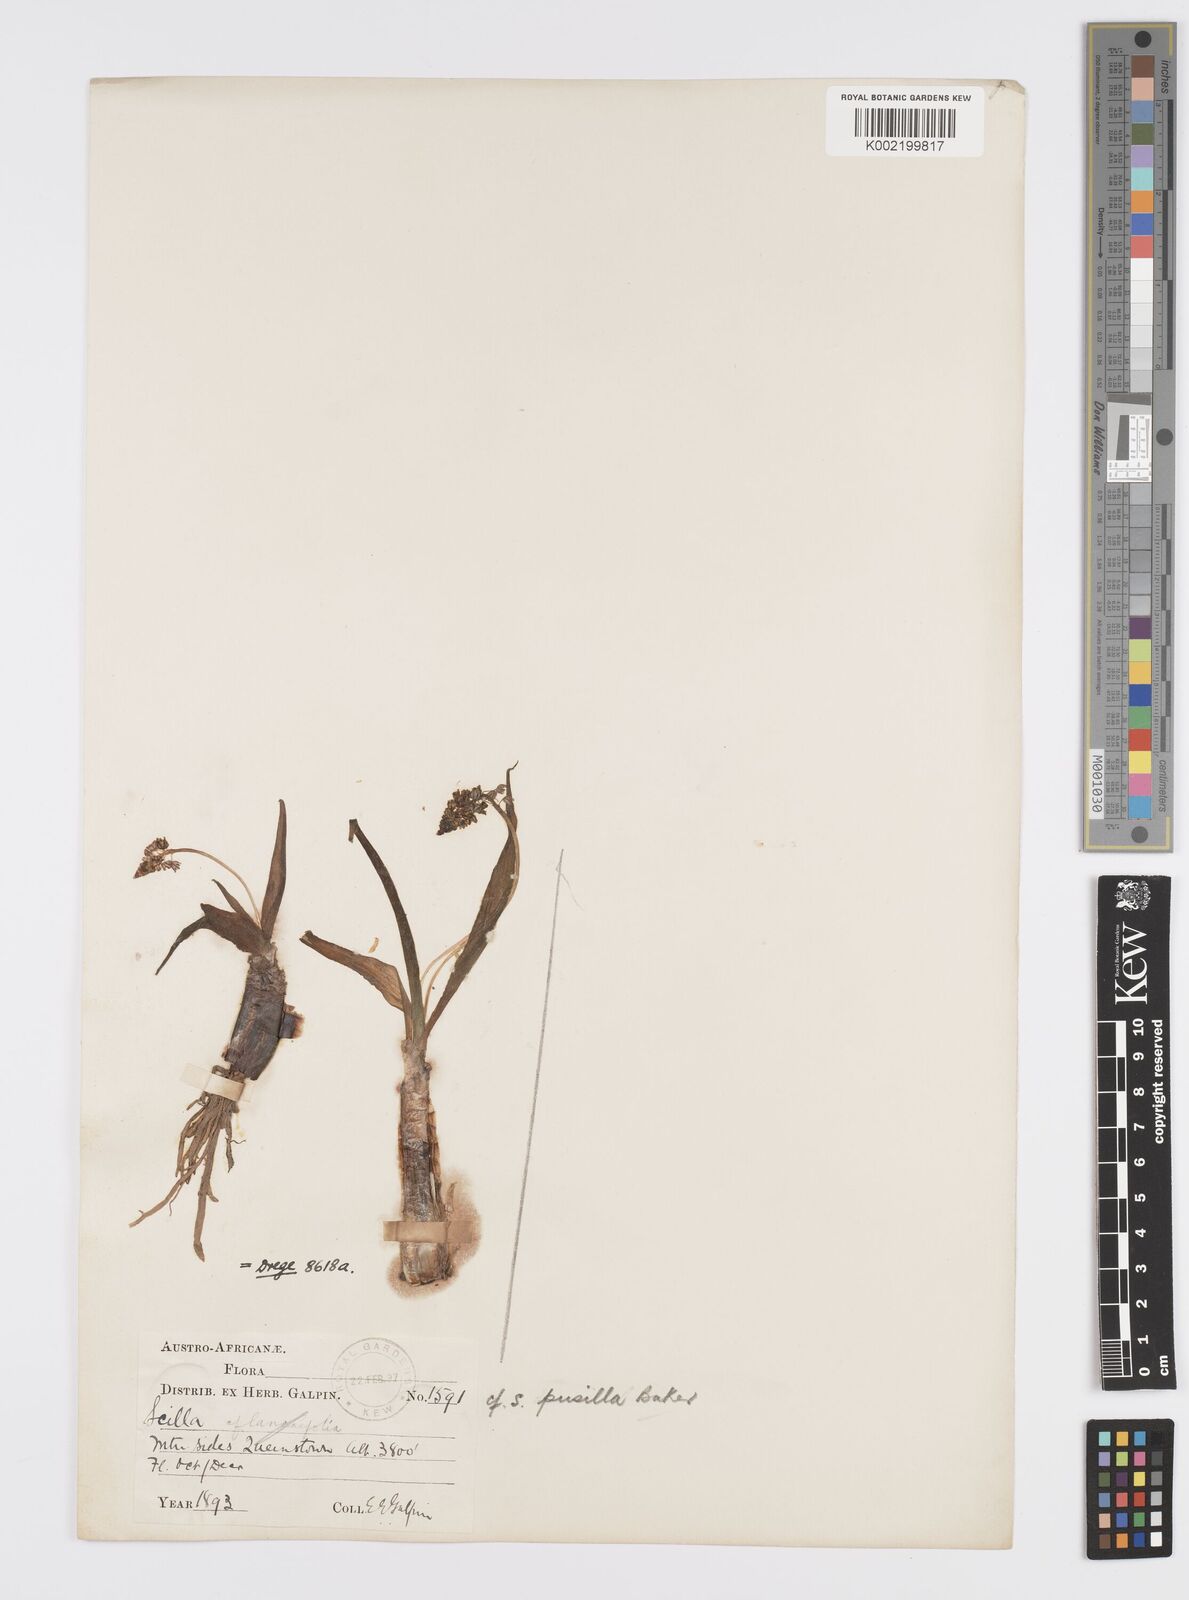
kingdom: Plantae
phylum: Tracheophyta
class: Liliopsida
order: Asparagales
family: Asparagaceae
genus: Ledebouria
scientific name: Ledebouria cooperi
